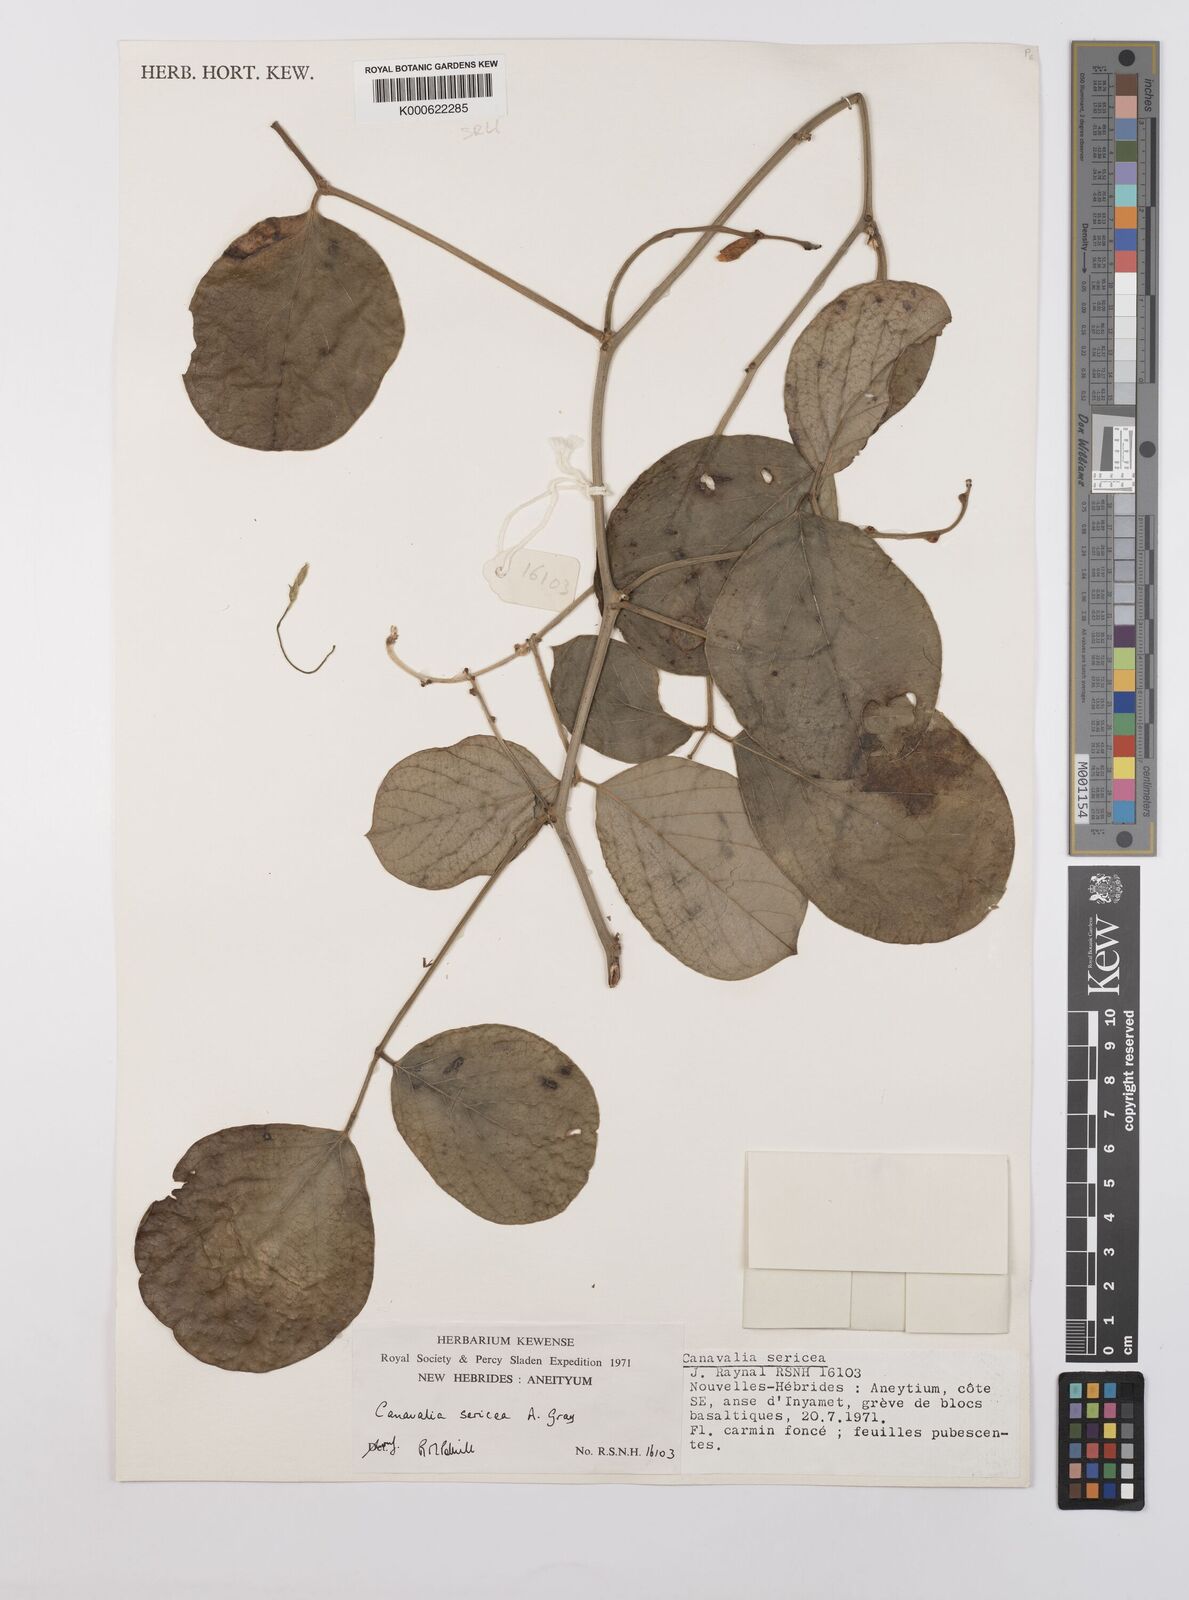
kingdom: Plantae
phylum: Tracheophyta
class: Magnoliopsida
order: Fabales
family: Fabaceae
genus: Canavalia
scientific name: Canavalia sericea
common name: Silky jackbean
